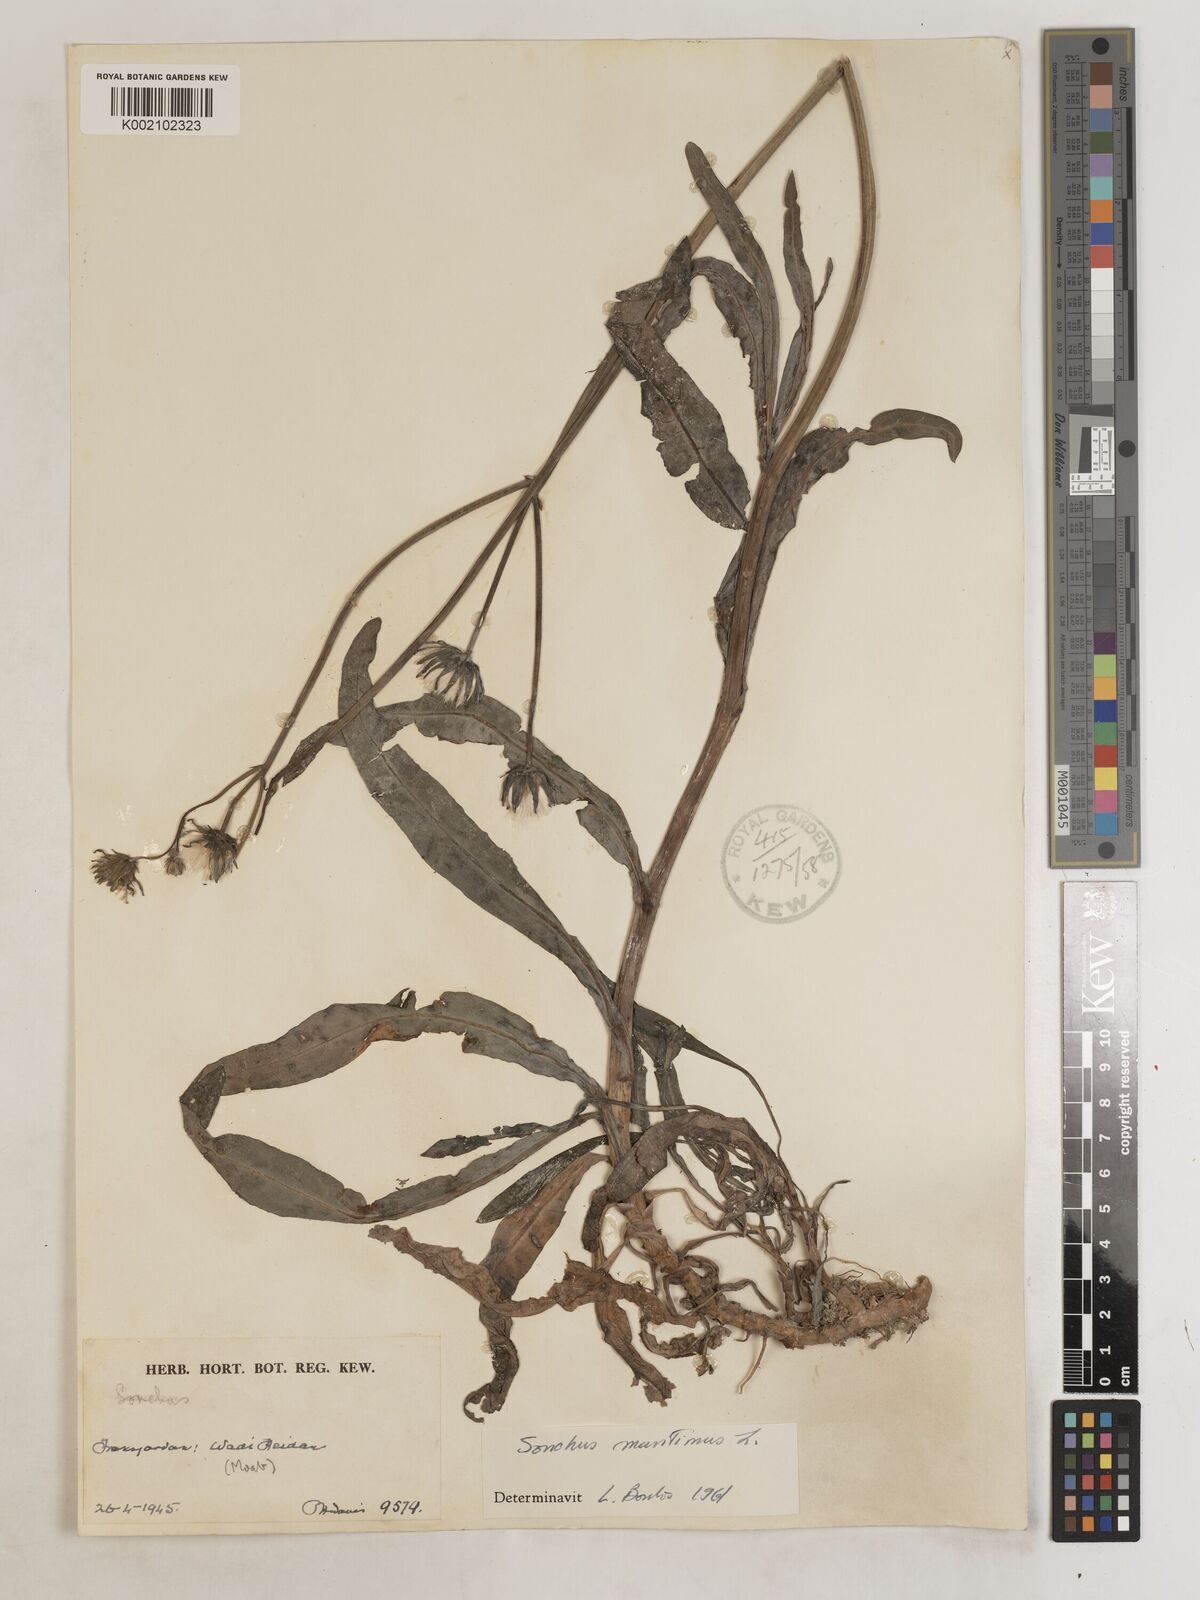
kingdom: Plantae
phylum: Tracheophyta
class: Magnoliopsida
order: Asterales
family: Asteraceae
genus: Sonchus
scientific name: Sonchus maritimus
